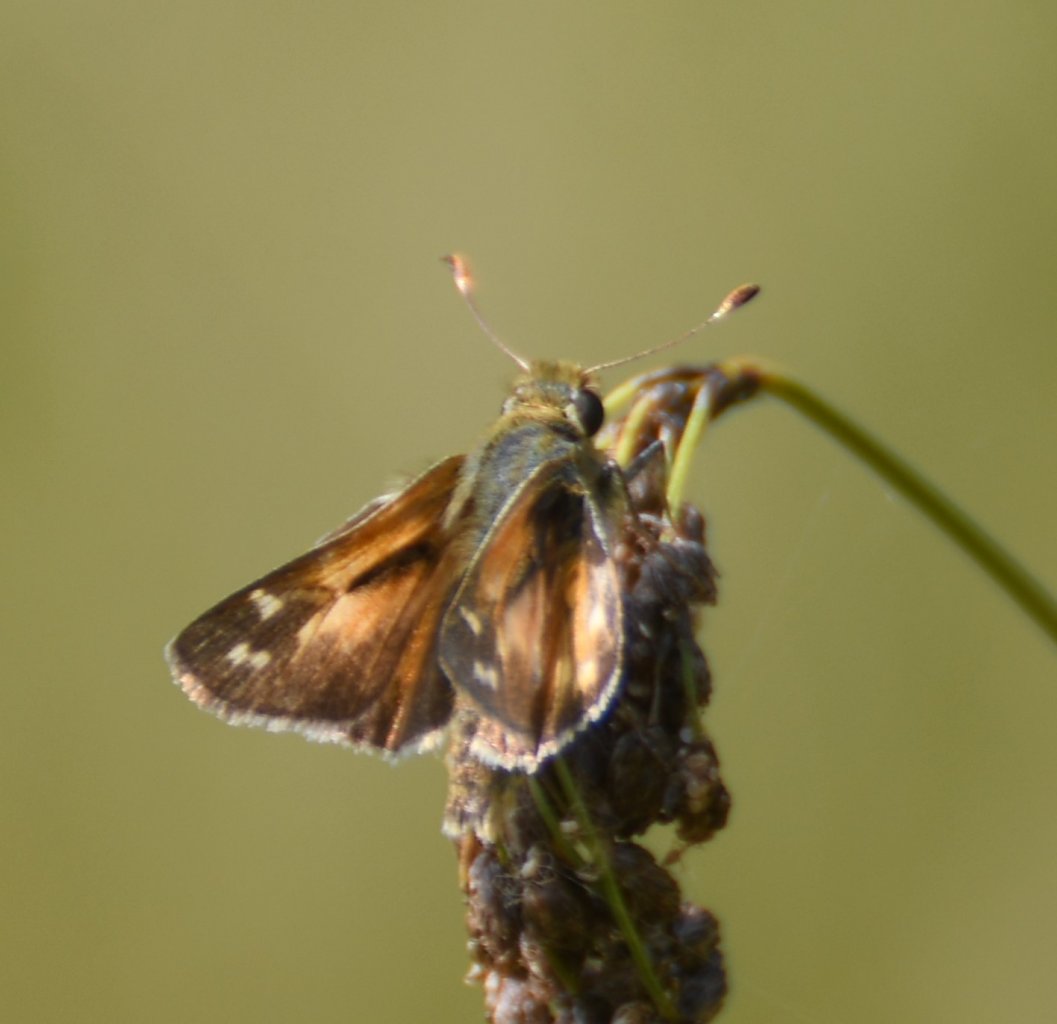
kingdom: Animalia
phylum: Arthropoda
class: Insecta
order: Lepidoptera
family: Hesperiidae
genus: Hesperia
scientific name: Hesperia comma
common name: Common Branded Skipper
